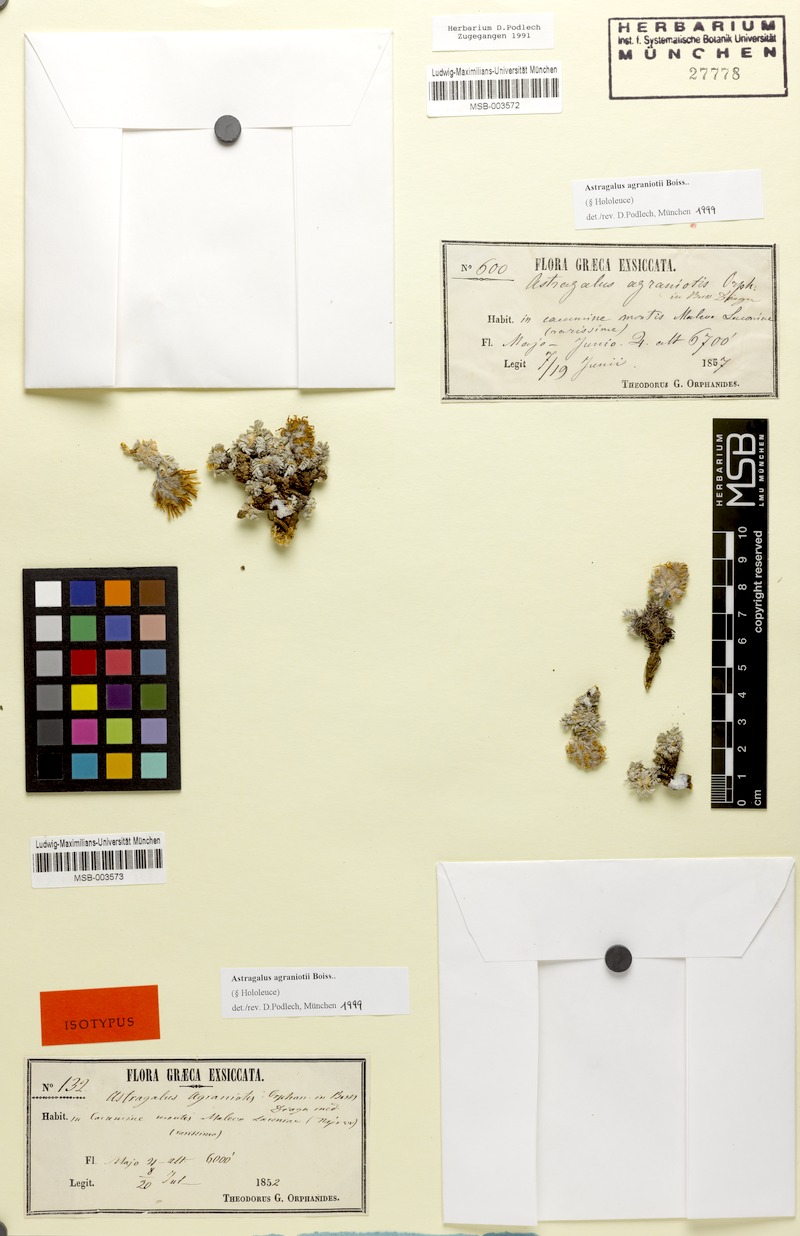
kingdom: Plantae
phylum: Tracheophyta
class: Magnoliopsida
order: Fabales
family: Fabaceae
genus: Astragalus
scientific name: Astragalus agraniotii
